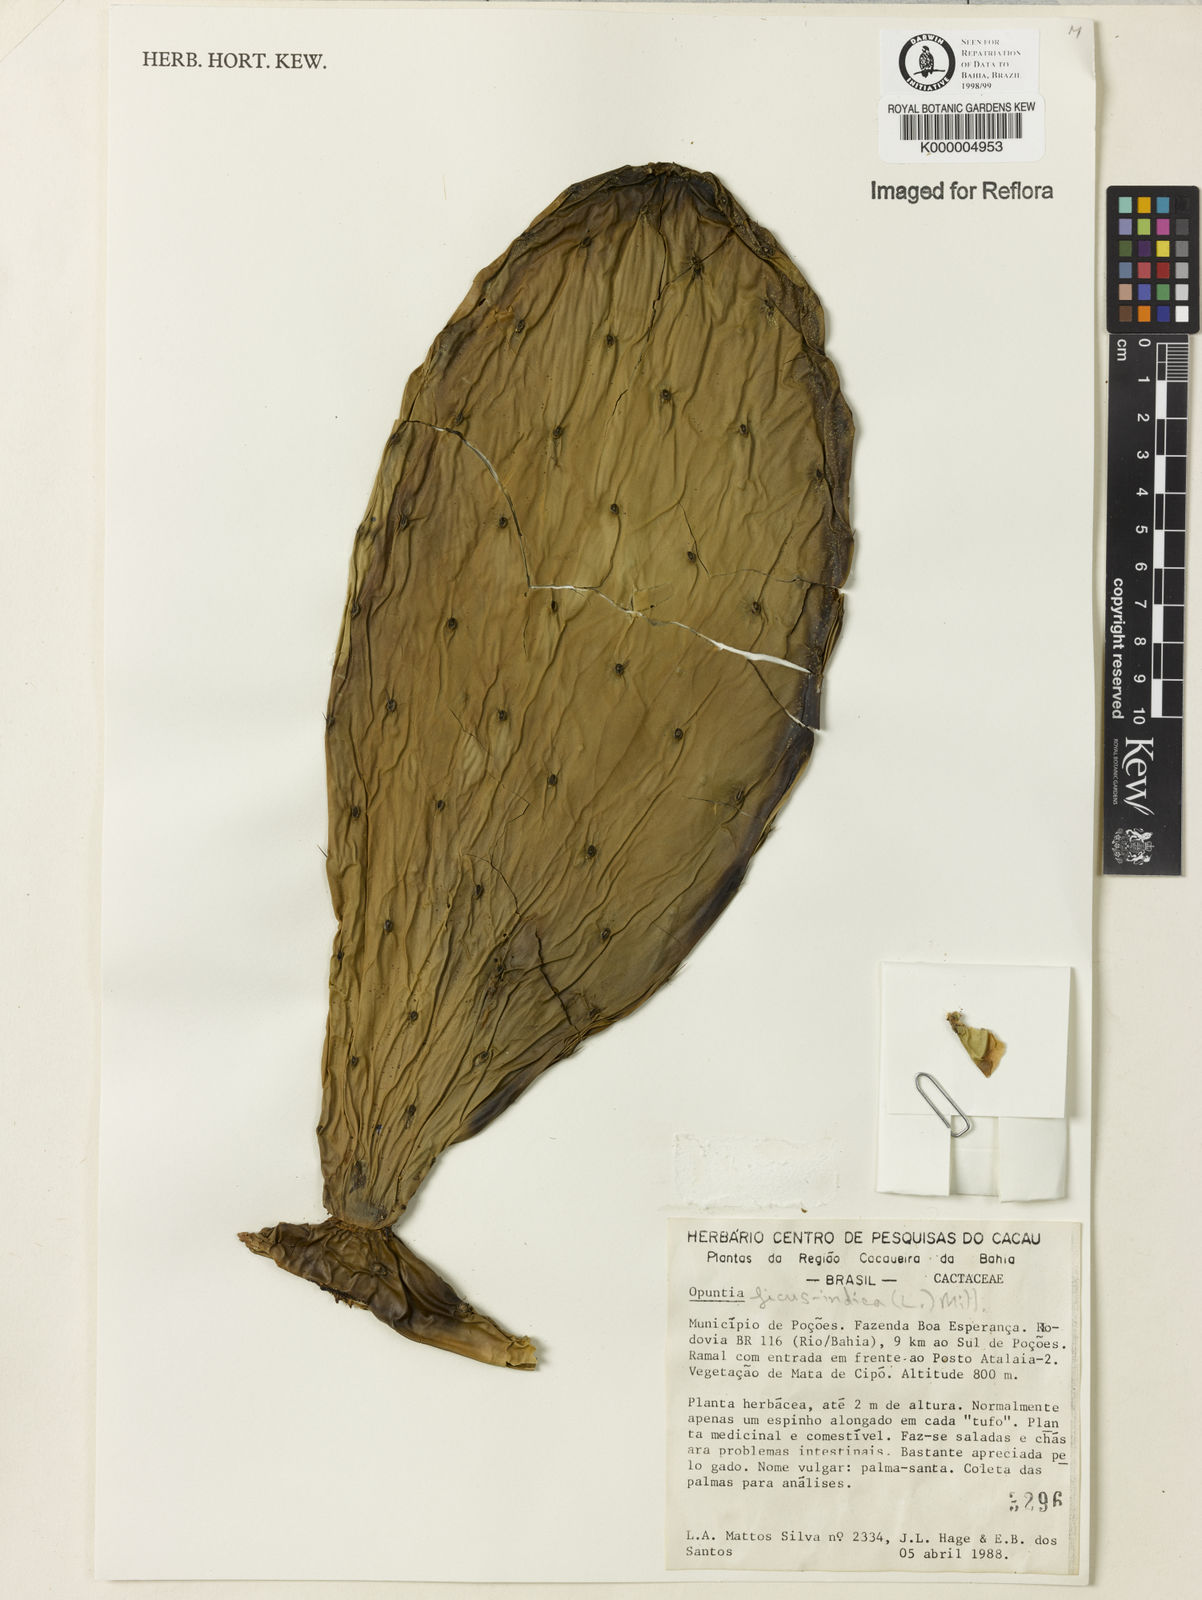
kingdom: Plantae
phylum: Tracheophyta
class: Magnoliopsida
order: Caryophyllales
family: Cactaceae
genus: Opuntia
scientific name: Opuntia ficus-indica
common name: Barbary fig
